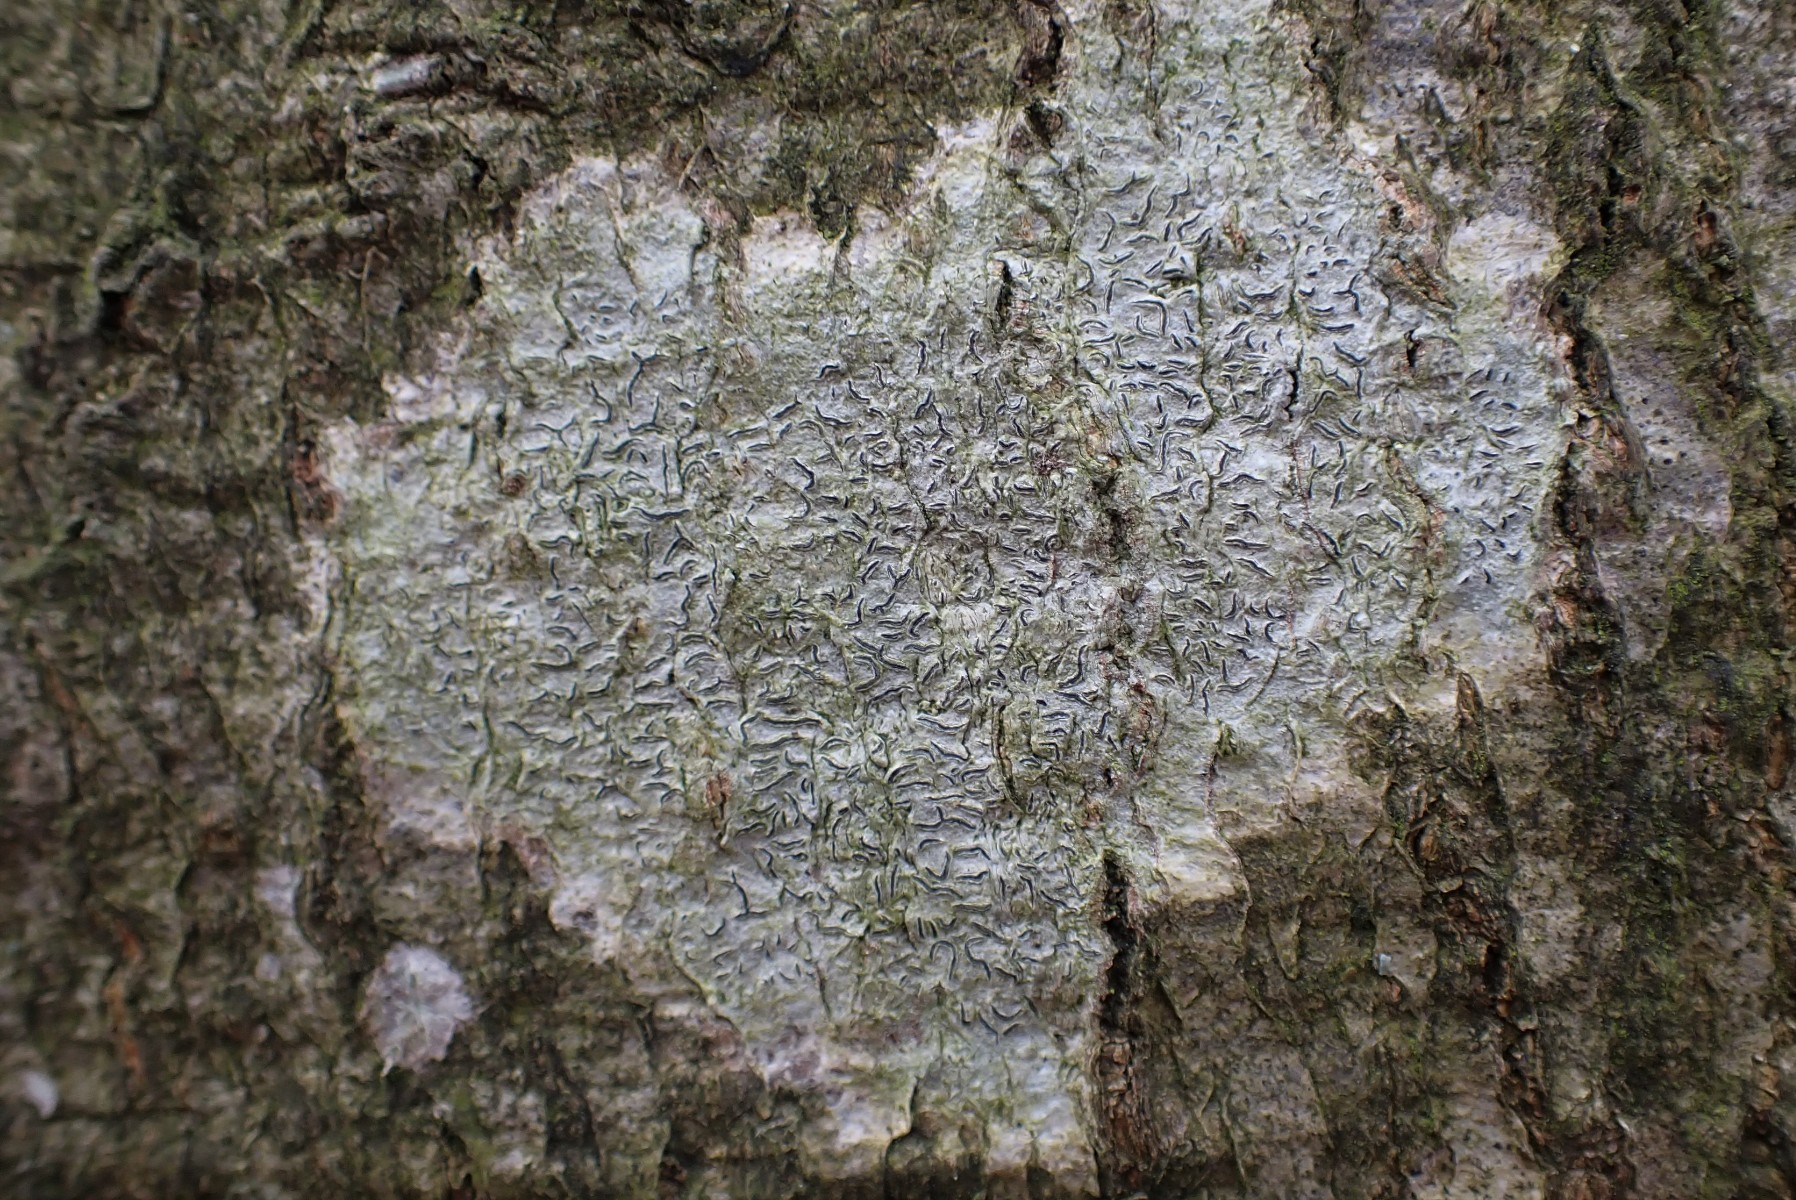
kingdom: Fungi
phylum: Ascomycota
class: Lecanoromycetes
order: Ostropales
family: Graphidaceae
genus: Graphis
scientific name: Graphis scripta
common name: almindelig skriftlav
